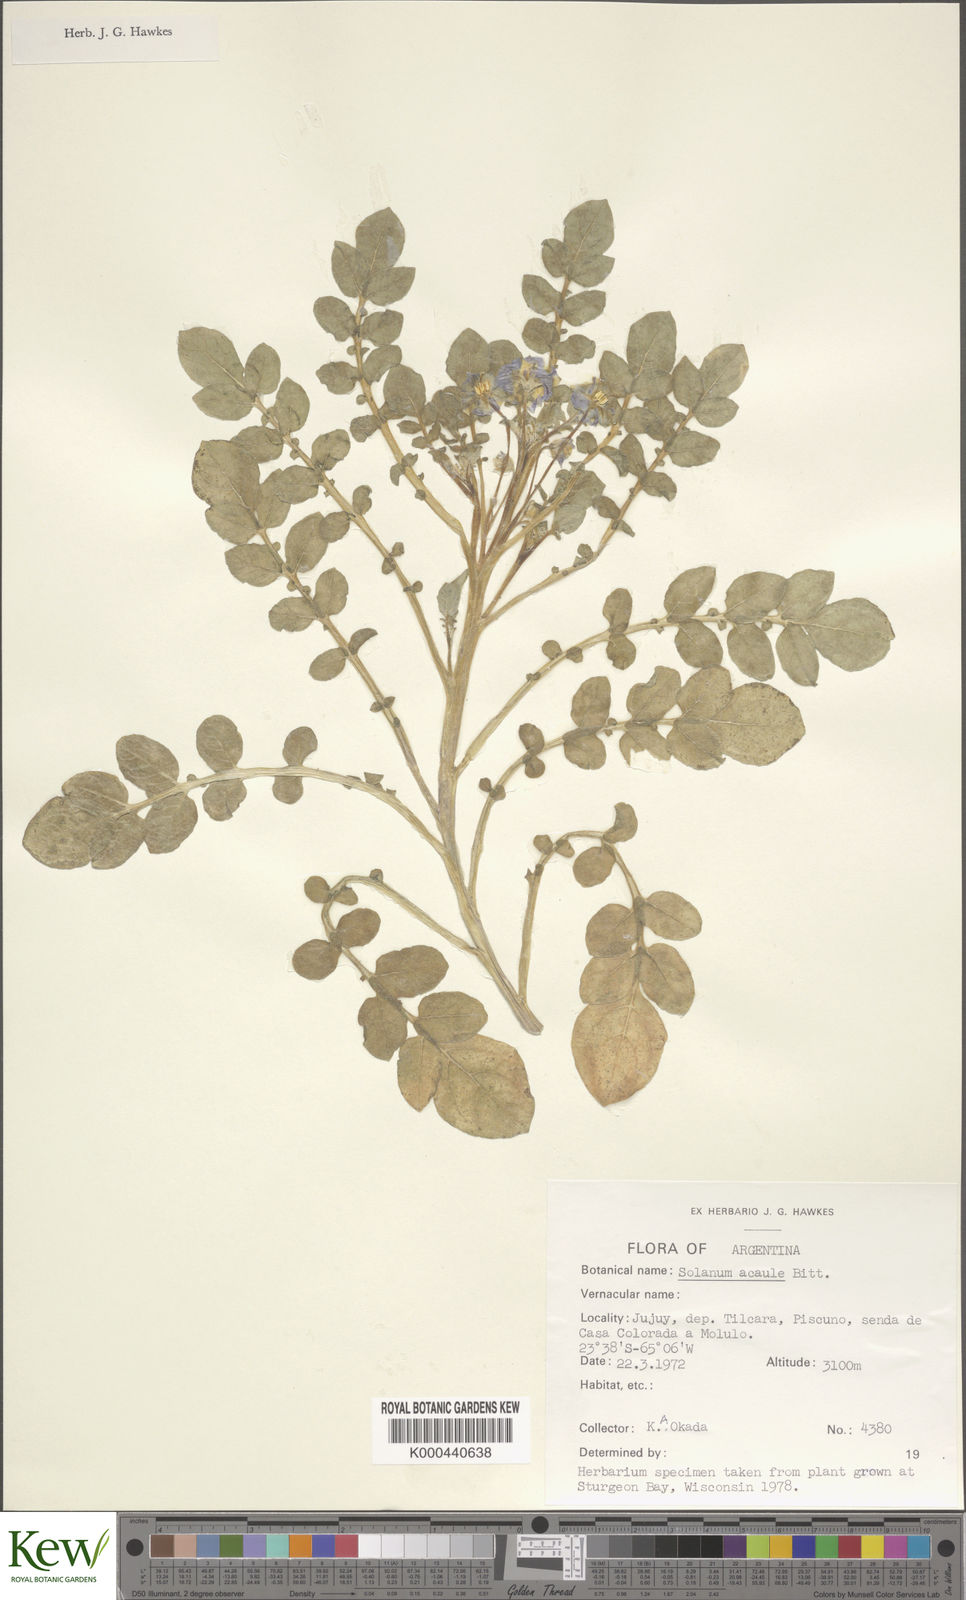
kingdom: Plantae
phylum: Tracheophyta
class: Magnoliopsida
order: Solanales
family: Solanaceae
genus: Solanum
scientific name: Solanum acaule
